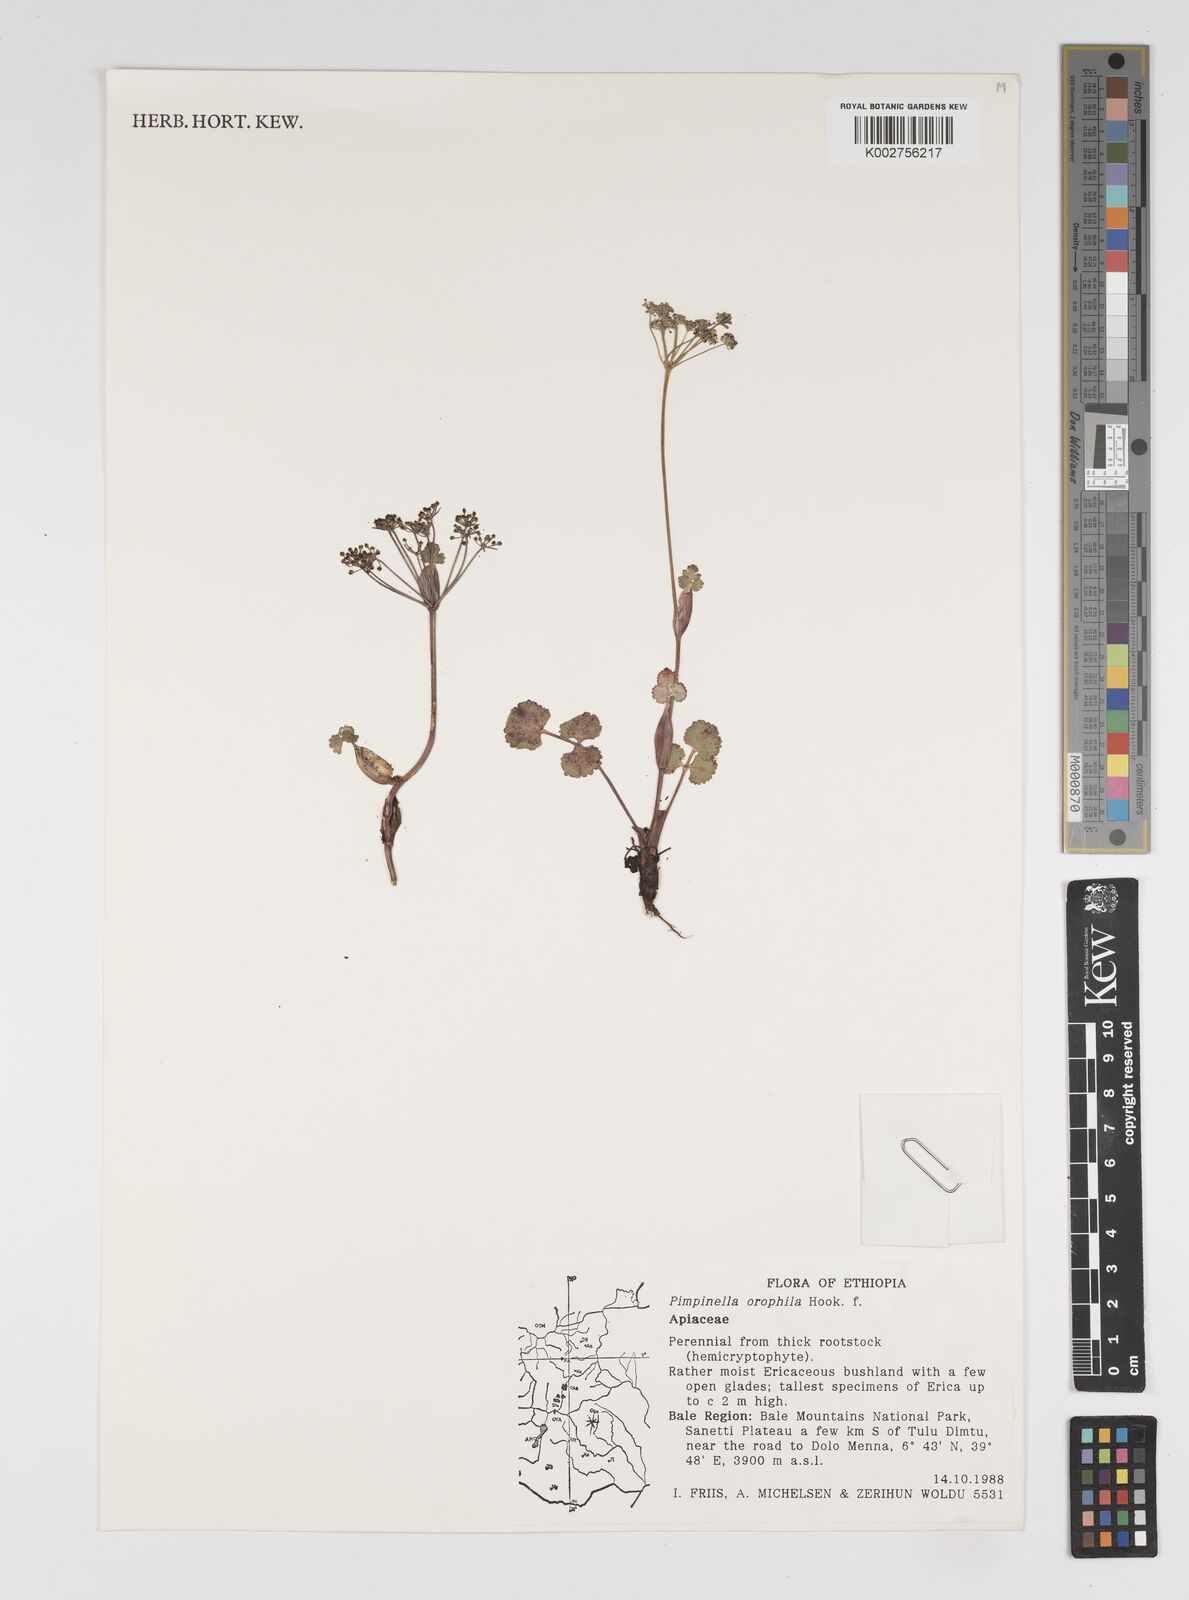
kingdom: Plantae
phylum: Tracheophyta
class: Magnoliopsida
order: Apiales
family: Apiaceae
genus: Pimpinella
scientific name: Pimpinella oreophila
